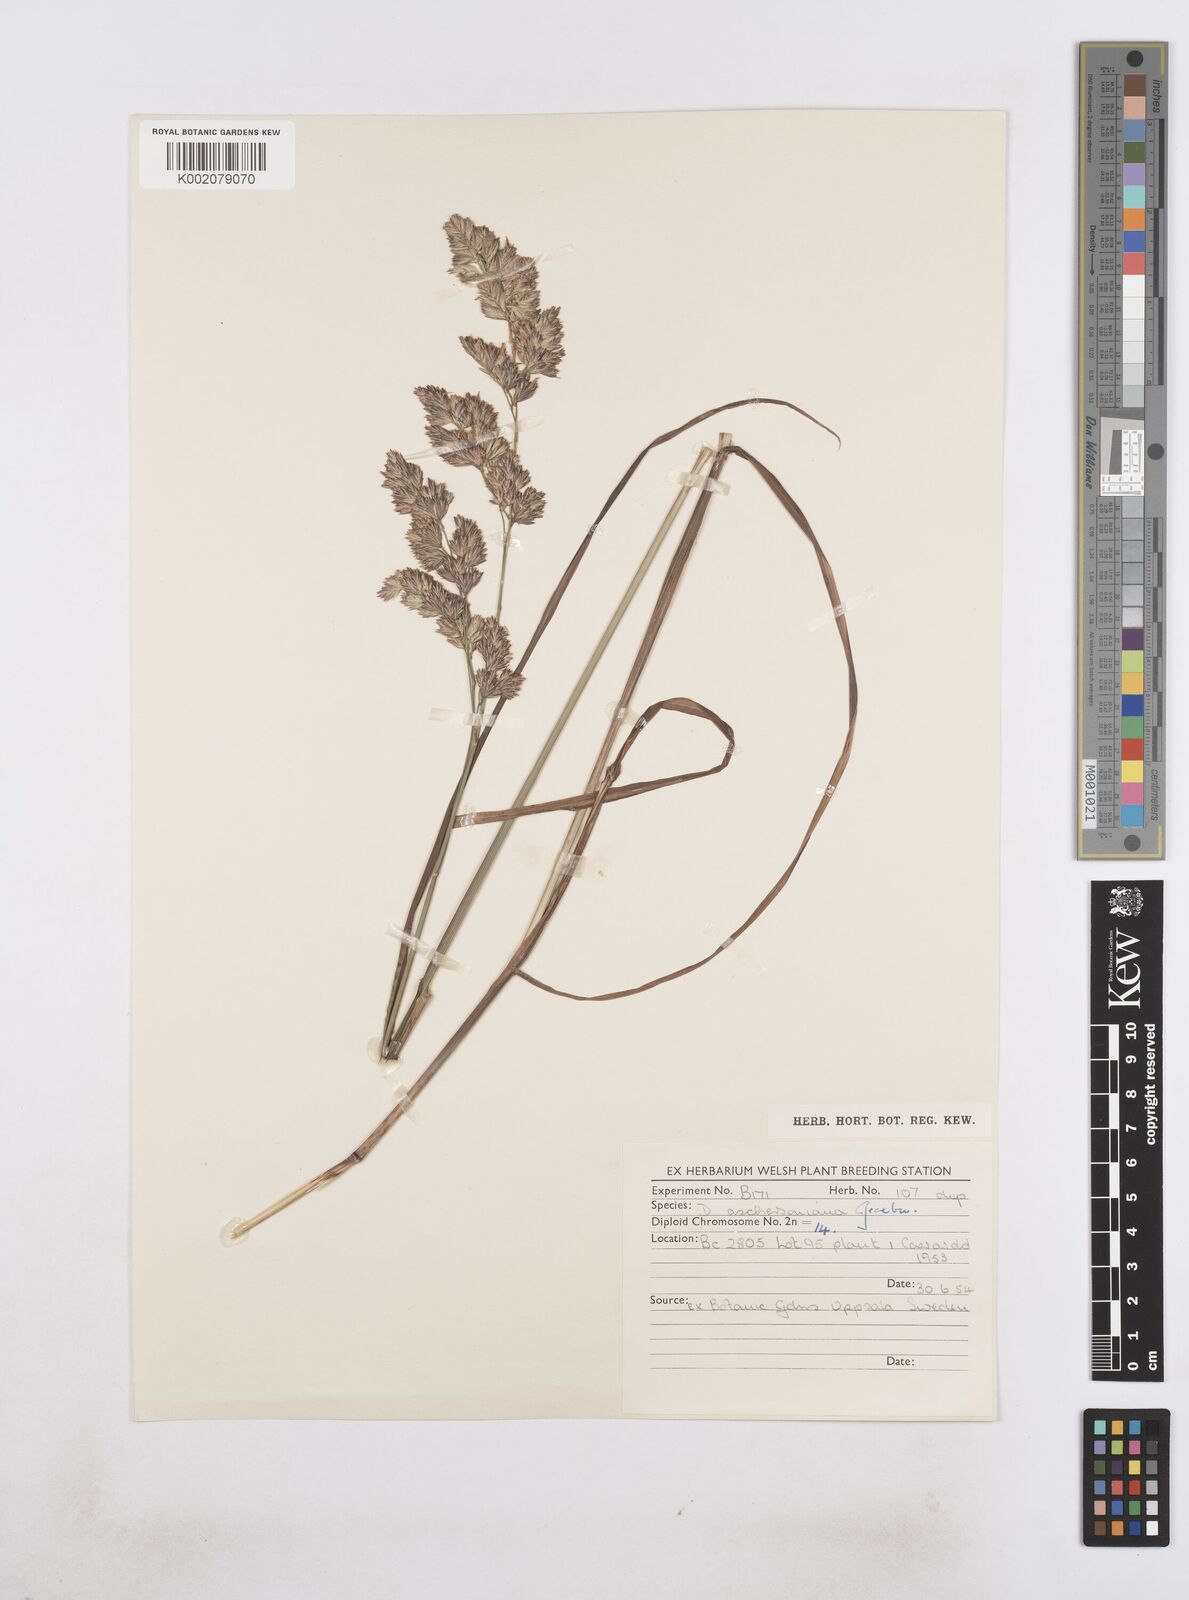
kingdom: Plantae
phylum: Tracheophyta
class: Liliopsida
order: Poales
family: Poaceae
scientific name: Poaceae
